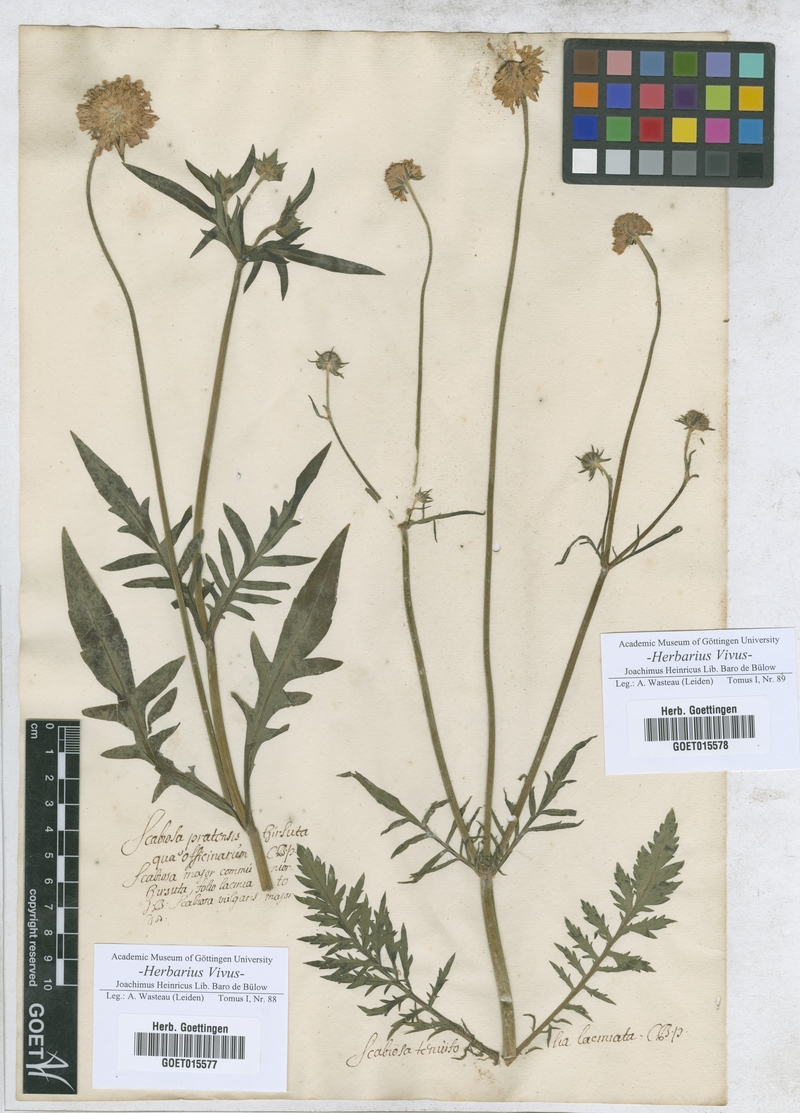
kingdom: Plantae
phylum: Tracheophyta
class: Magnoliopsida
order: Dipsacales
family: Caprifoliaceae
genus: Scabiosa
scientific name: Scabiosa
